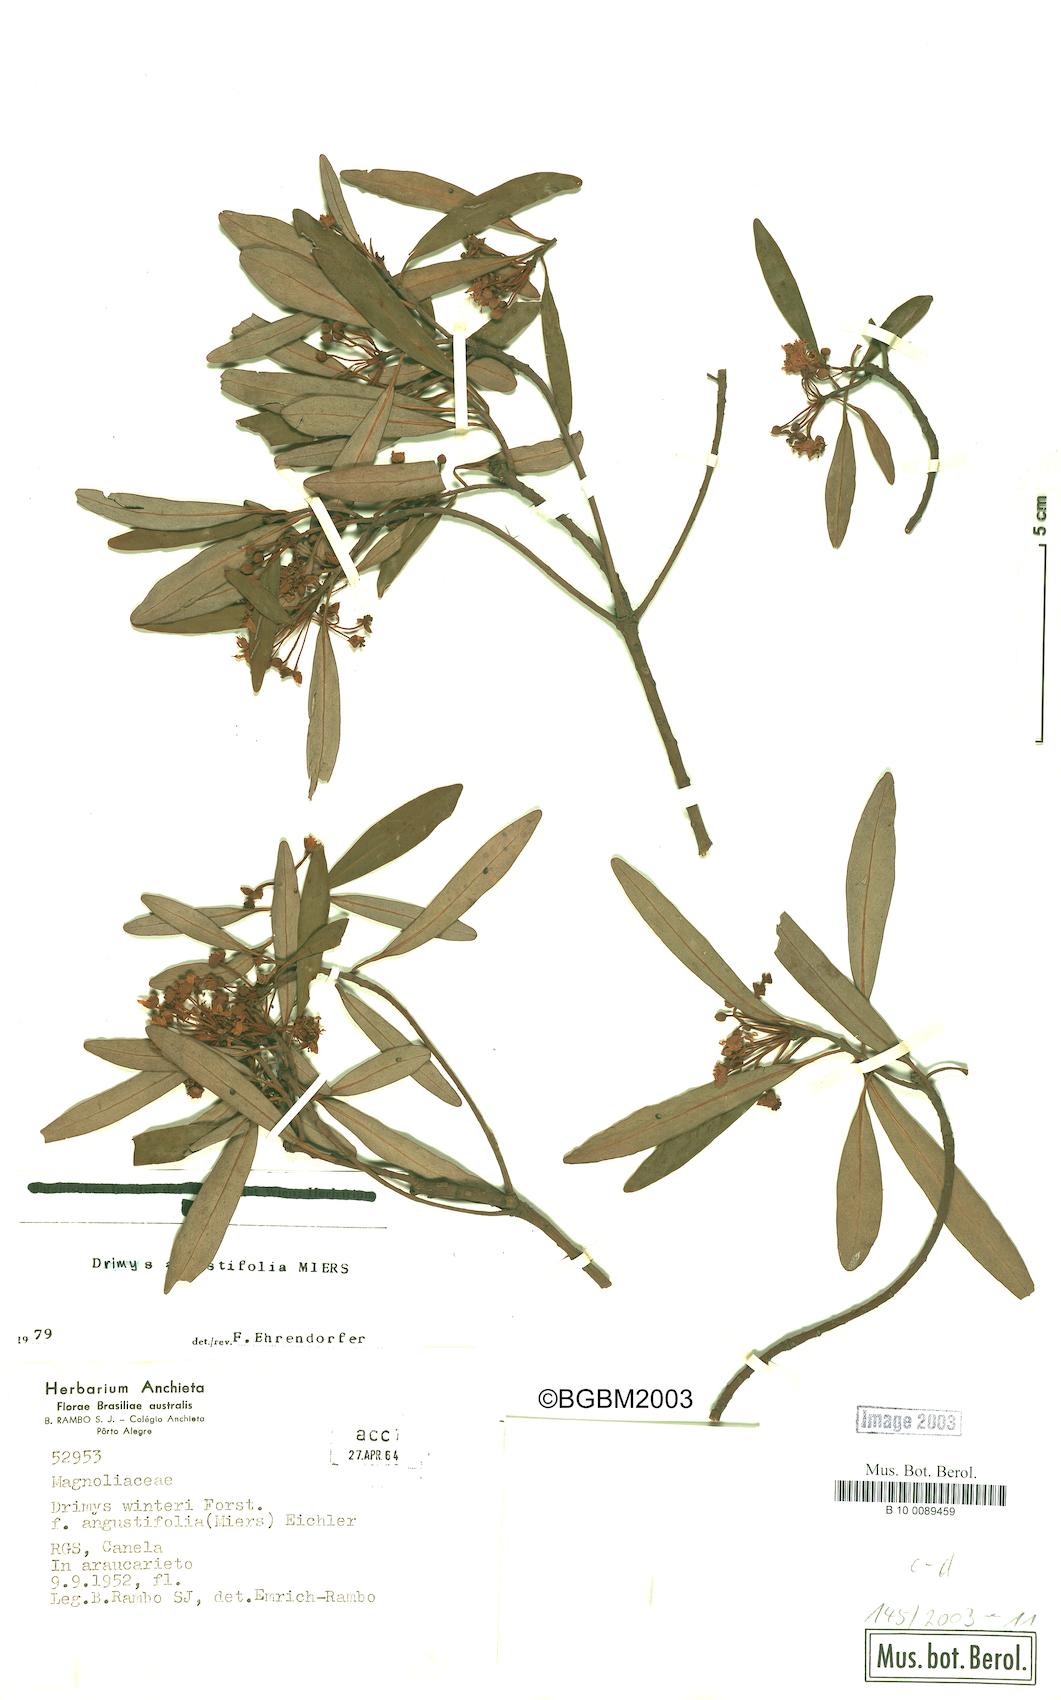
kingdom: Plantae
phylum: Tracheophyta
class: Magnoliopsida
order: Canellales
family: Winteraceae
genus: Drimys
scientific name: Drimys angustifolia
